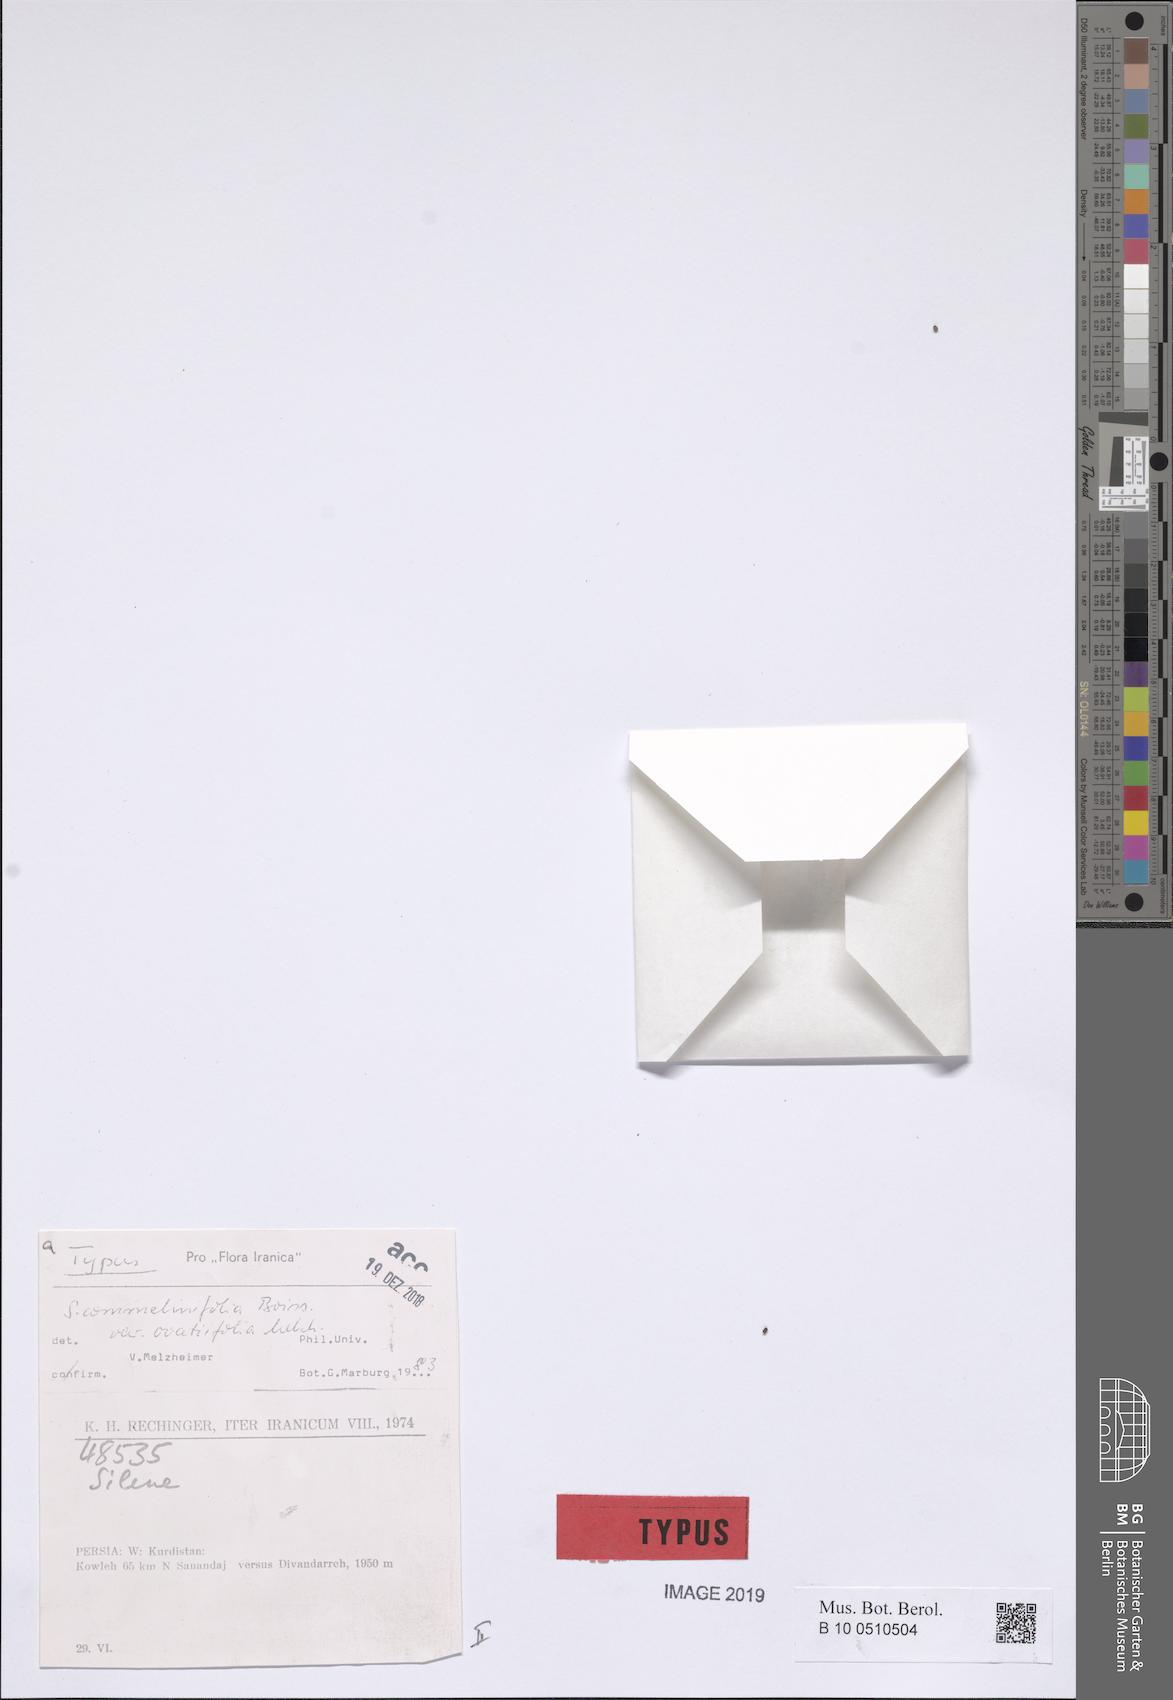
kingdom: Plantae
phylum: Tracheophyta
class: Magnoliopsida
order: Caryophyllales
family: Caryophyllaceae
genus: Silene
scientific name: Silene commelinifolia
